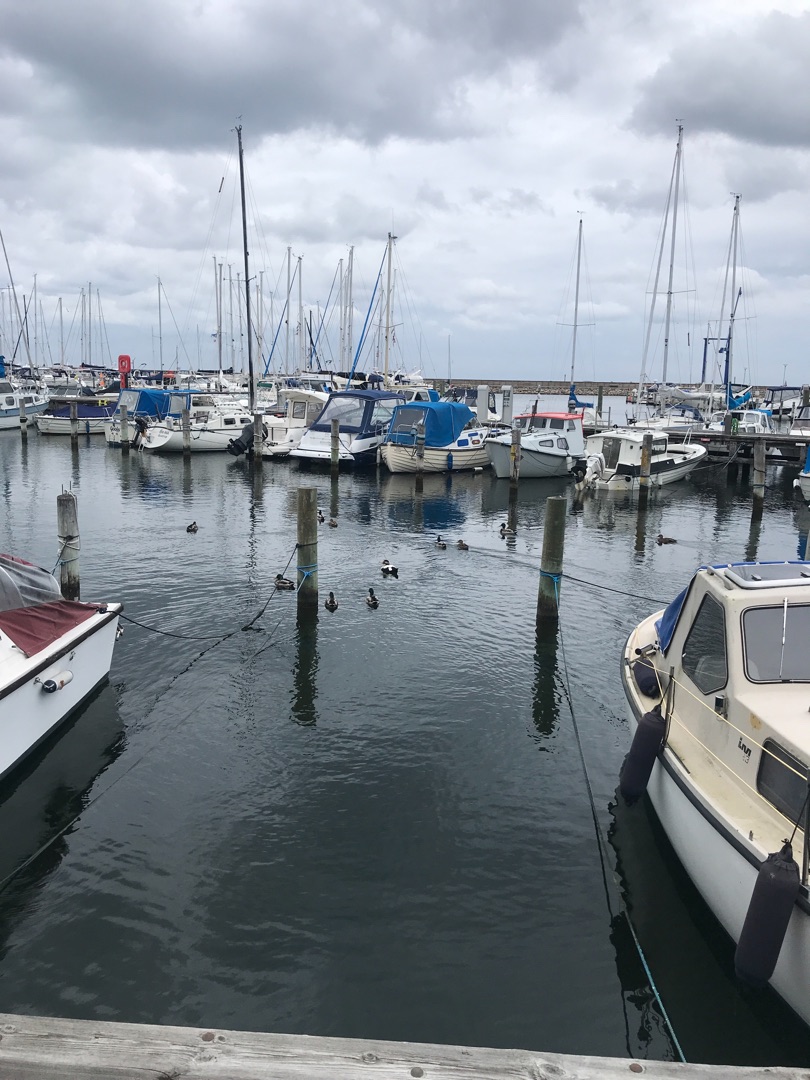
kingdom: Animalia
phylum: Chordata
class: Aves
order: Anseriformes
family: Anatidae
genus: Somateria
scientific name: Somateria mollissima
